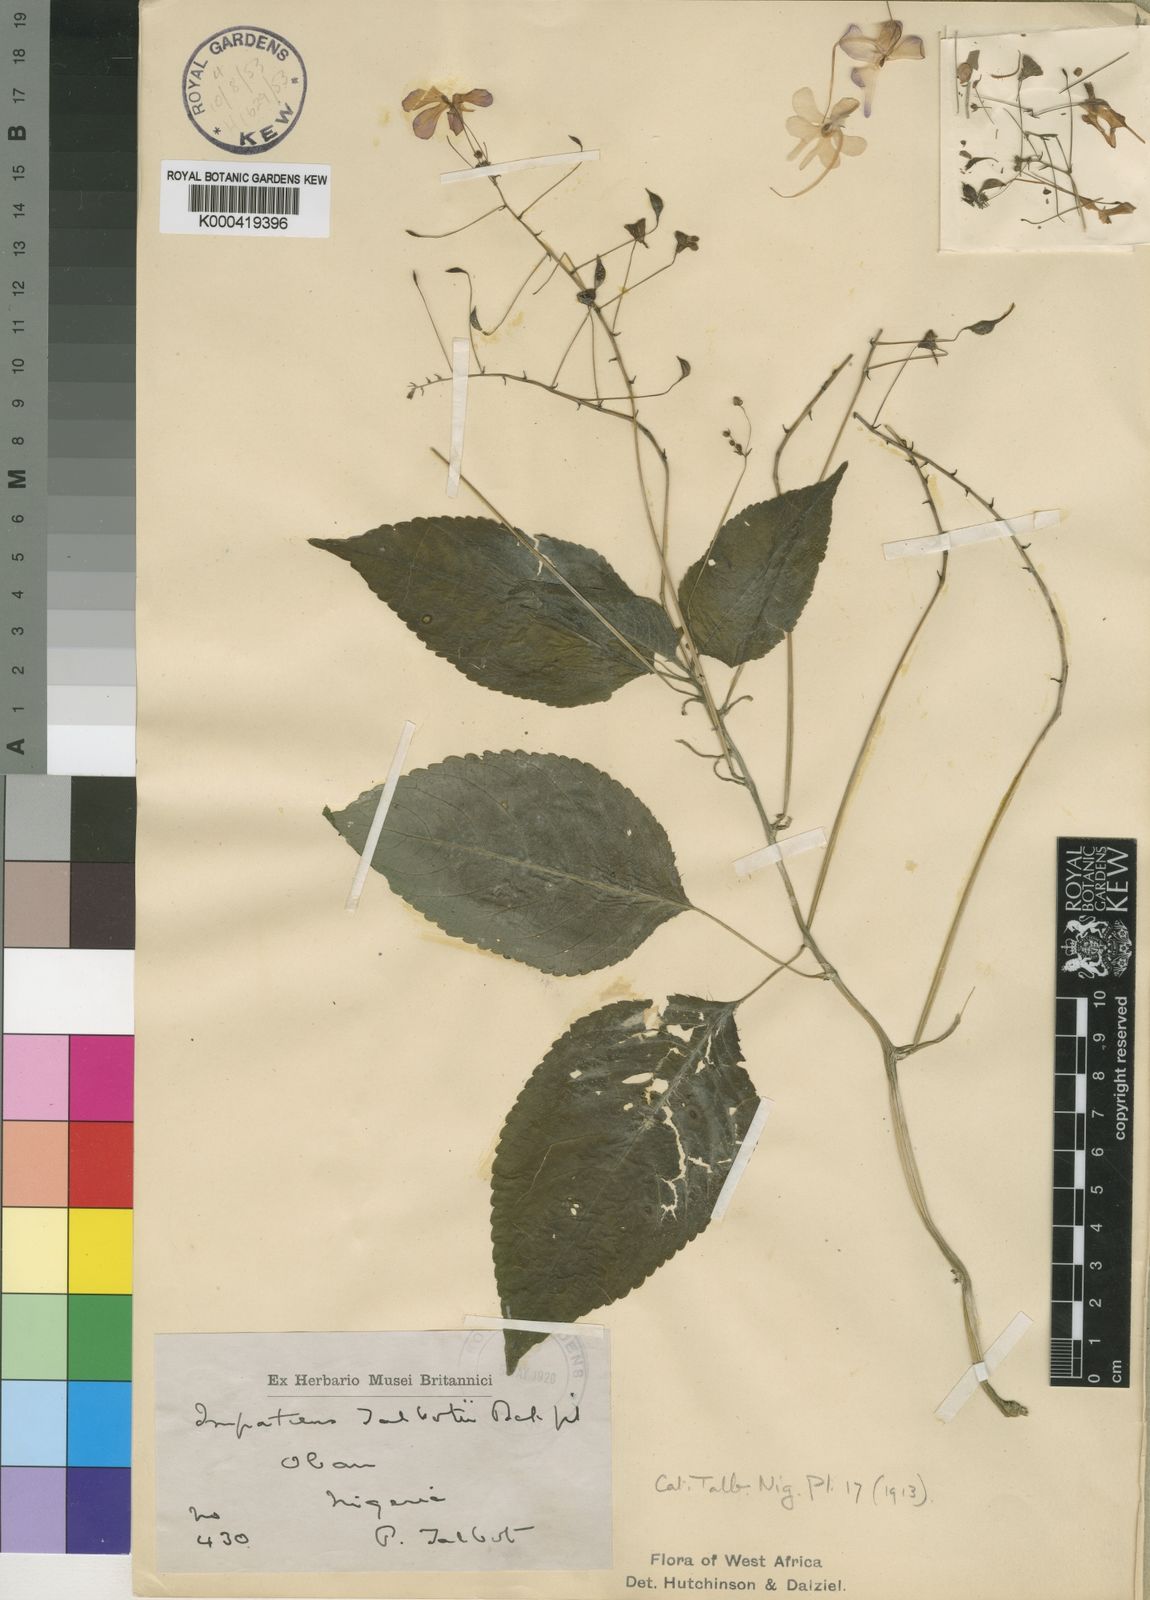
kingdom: Plantae
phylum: Tracheophyta
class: Magnoliopsida
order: Ericales
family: Balsaminaceae
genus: Impatiens
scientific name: Impatiens kamerunensis
